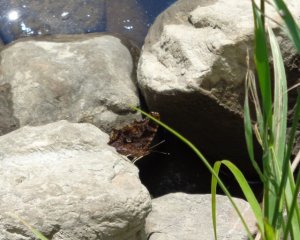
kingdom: Animalia
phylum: Arthropoda
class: Insecta
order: Lepidoptera
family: Nymphalidae
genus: Polygonia
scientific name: Polygonia comma
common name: Eastern Comma
